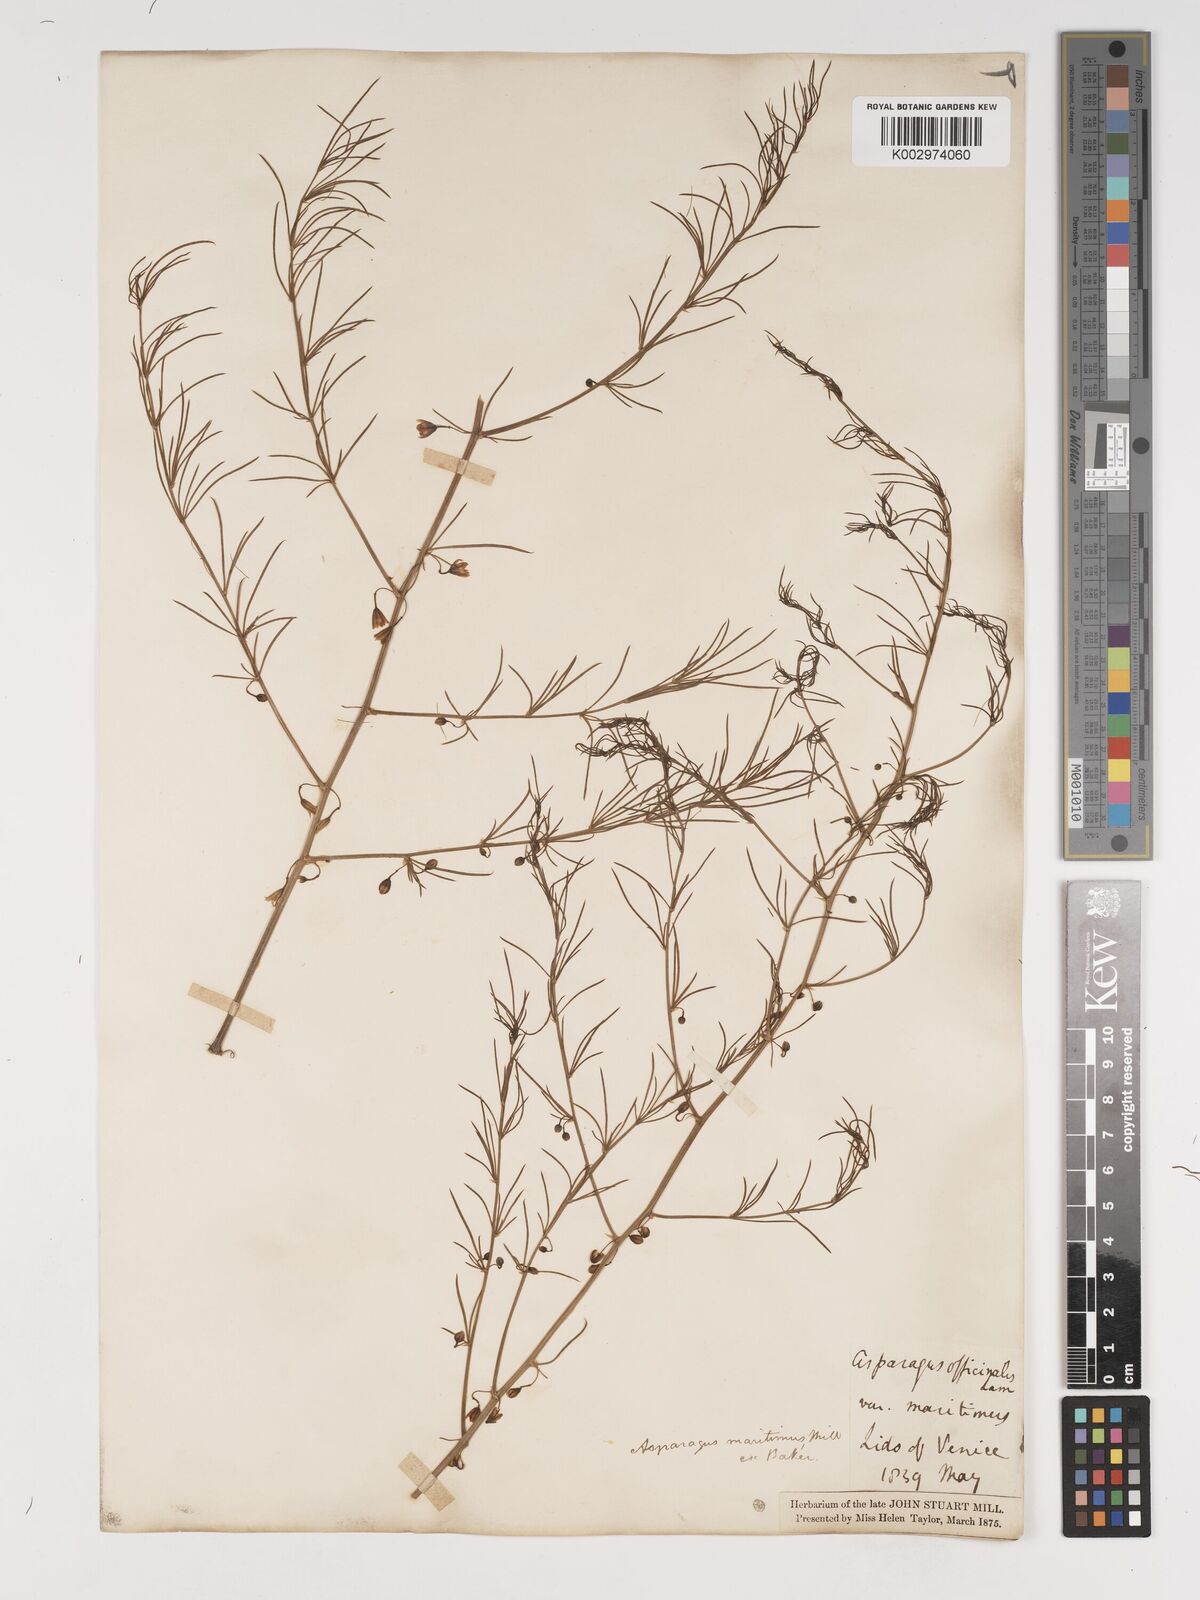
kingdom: Plantae
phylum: Tracheophyta
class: Liliopsida
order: Asparagales
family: Asparagaceae
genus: Asparagus
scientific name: Asparagus maritimus
